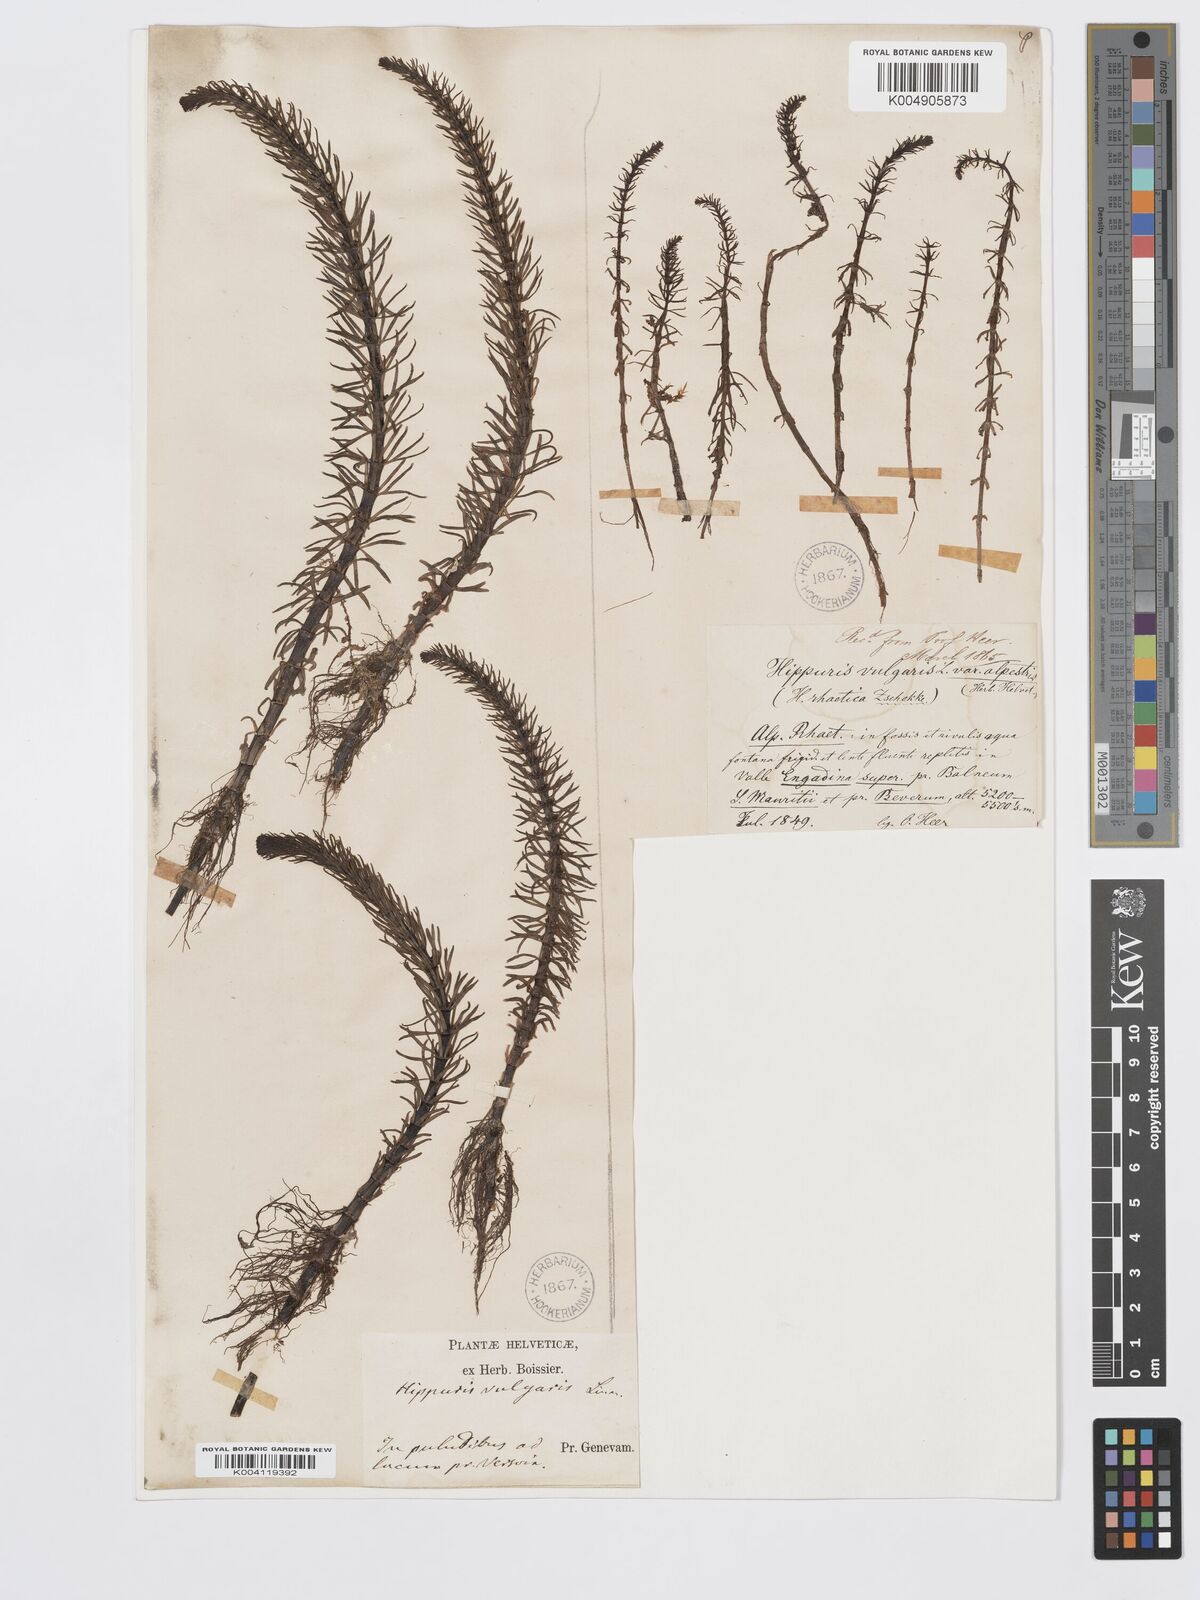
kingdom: Plantae
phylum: Tracheophyta
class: Magnoliopsida
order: Lamiales
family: Plantaginaceae
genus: Hippuris
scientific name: Hippuris vulgaris
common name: Mare's-tail
